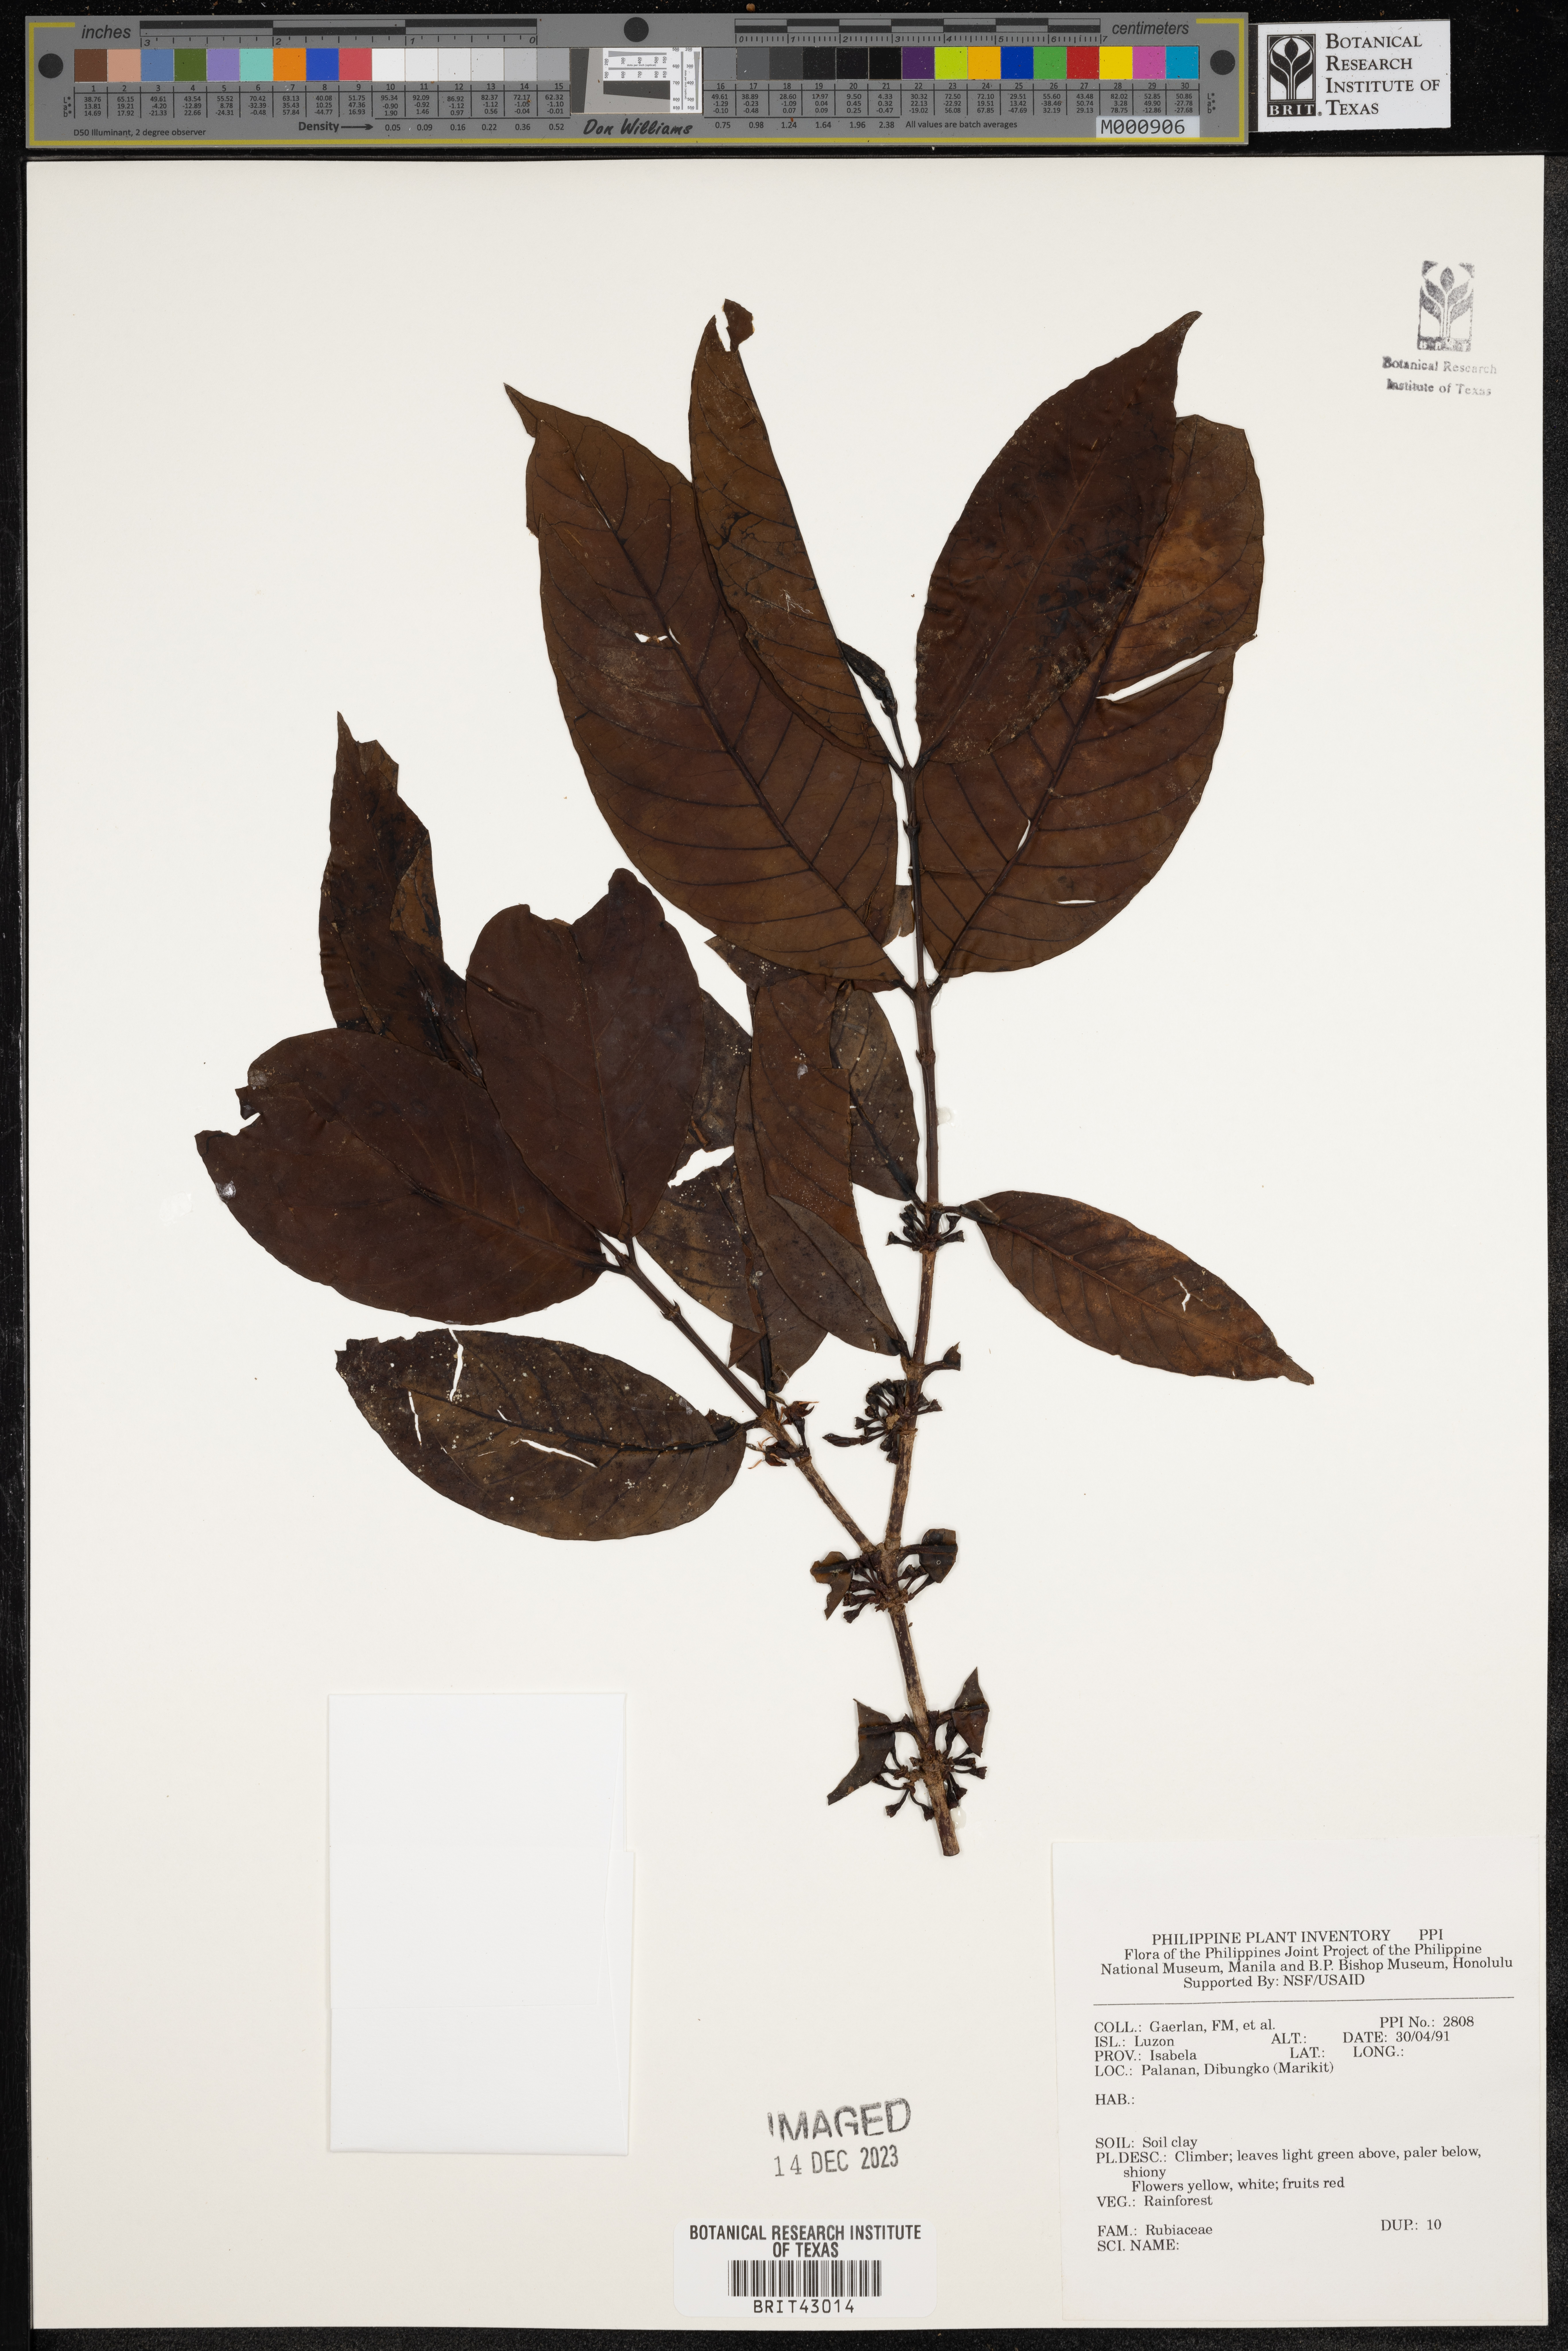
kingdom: Plantae
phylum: Tracheophyta
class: Magnoliopsida
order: Gentianales
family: Rubiaceae
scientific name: Rubiaceae
